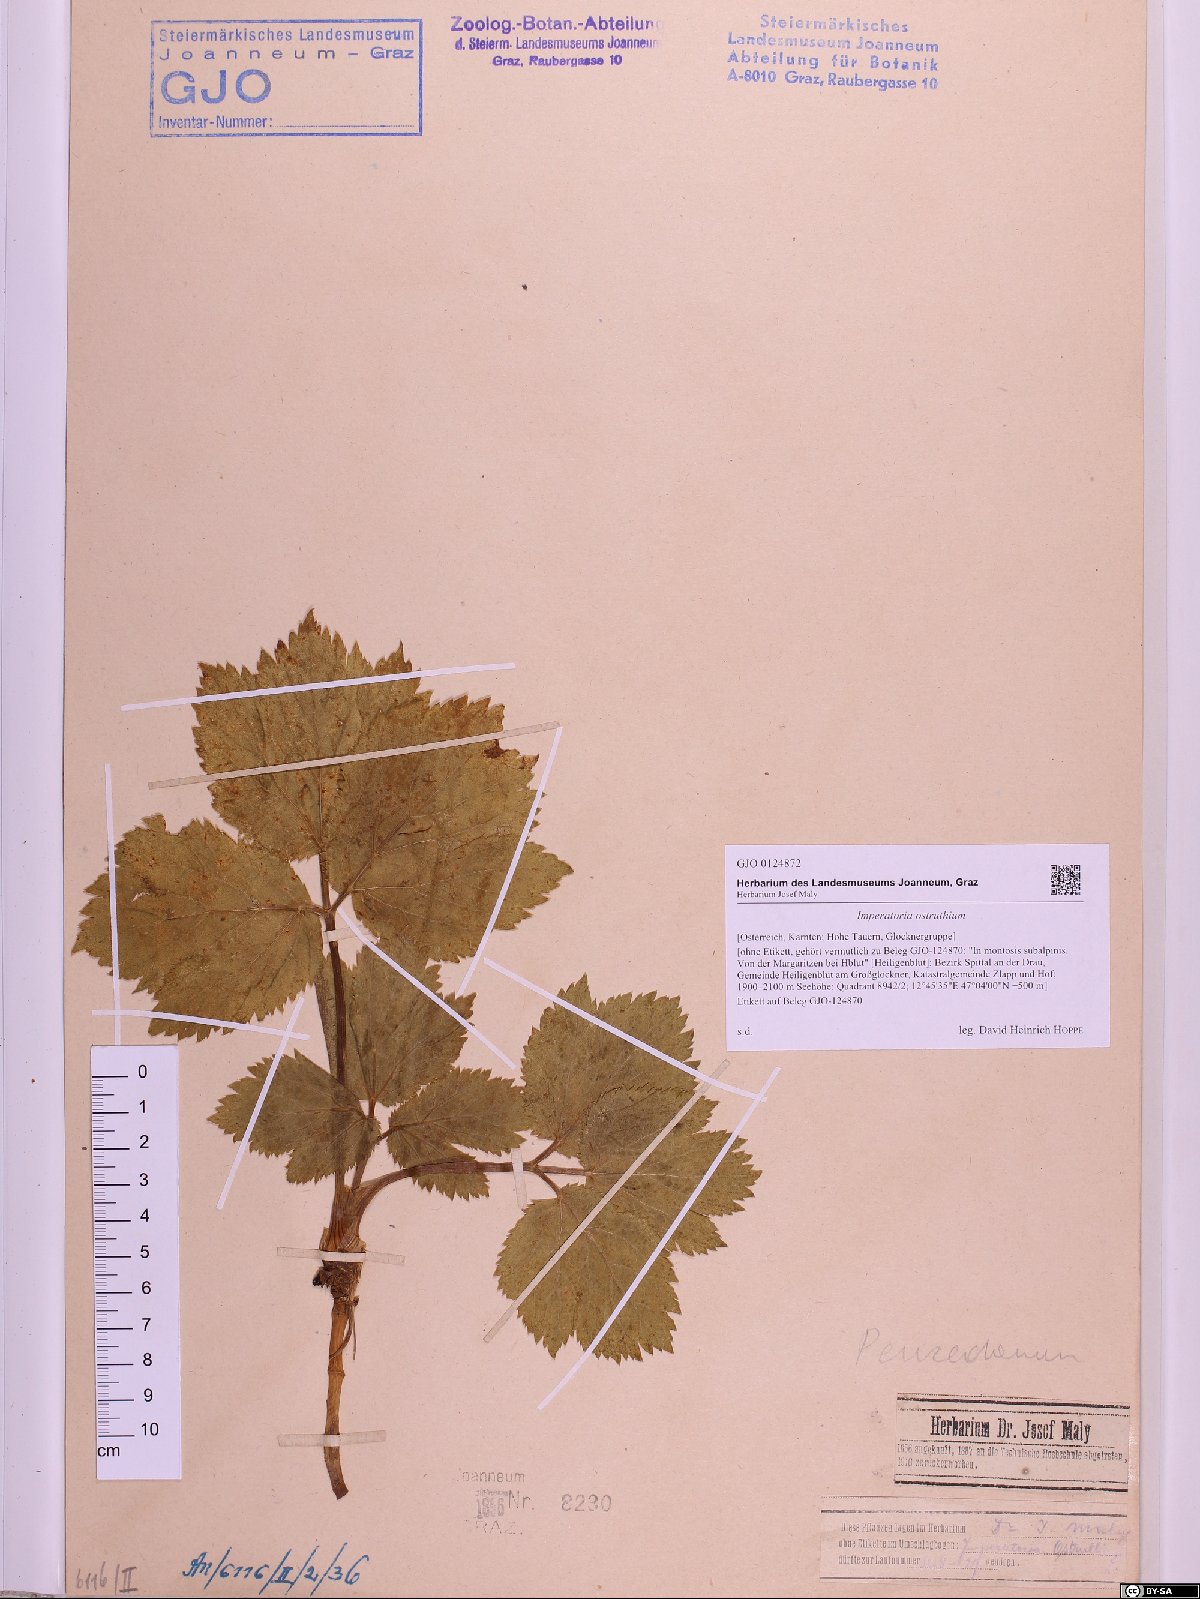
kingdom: Plantae
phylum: Tracheophyta
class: Magnoliopsida
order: Apiales
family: Apiaceae
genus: Imperatoria
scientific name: Imperatoria ostruthium
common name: Masterwort
